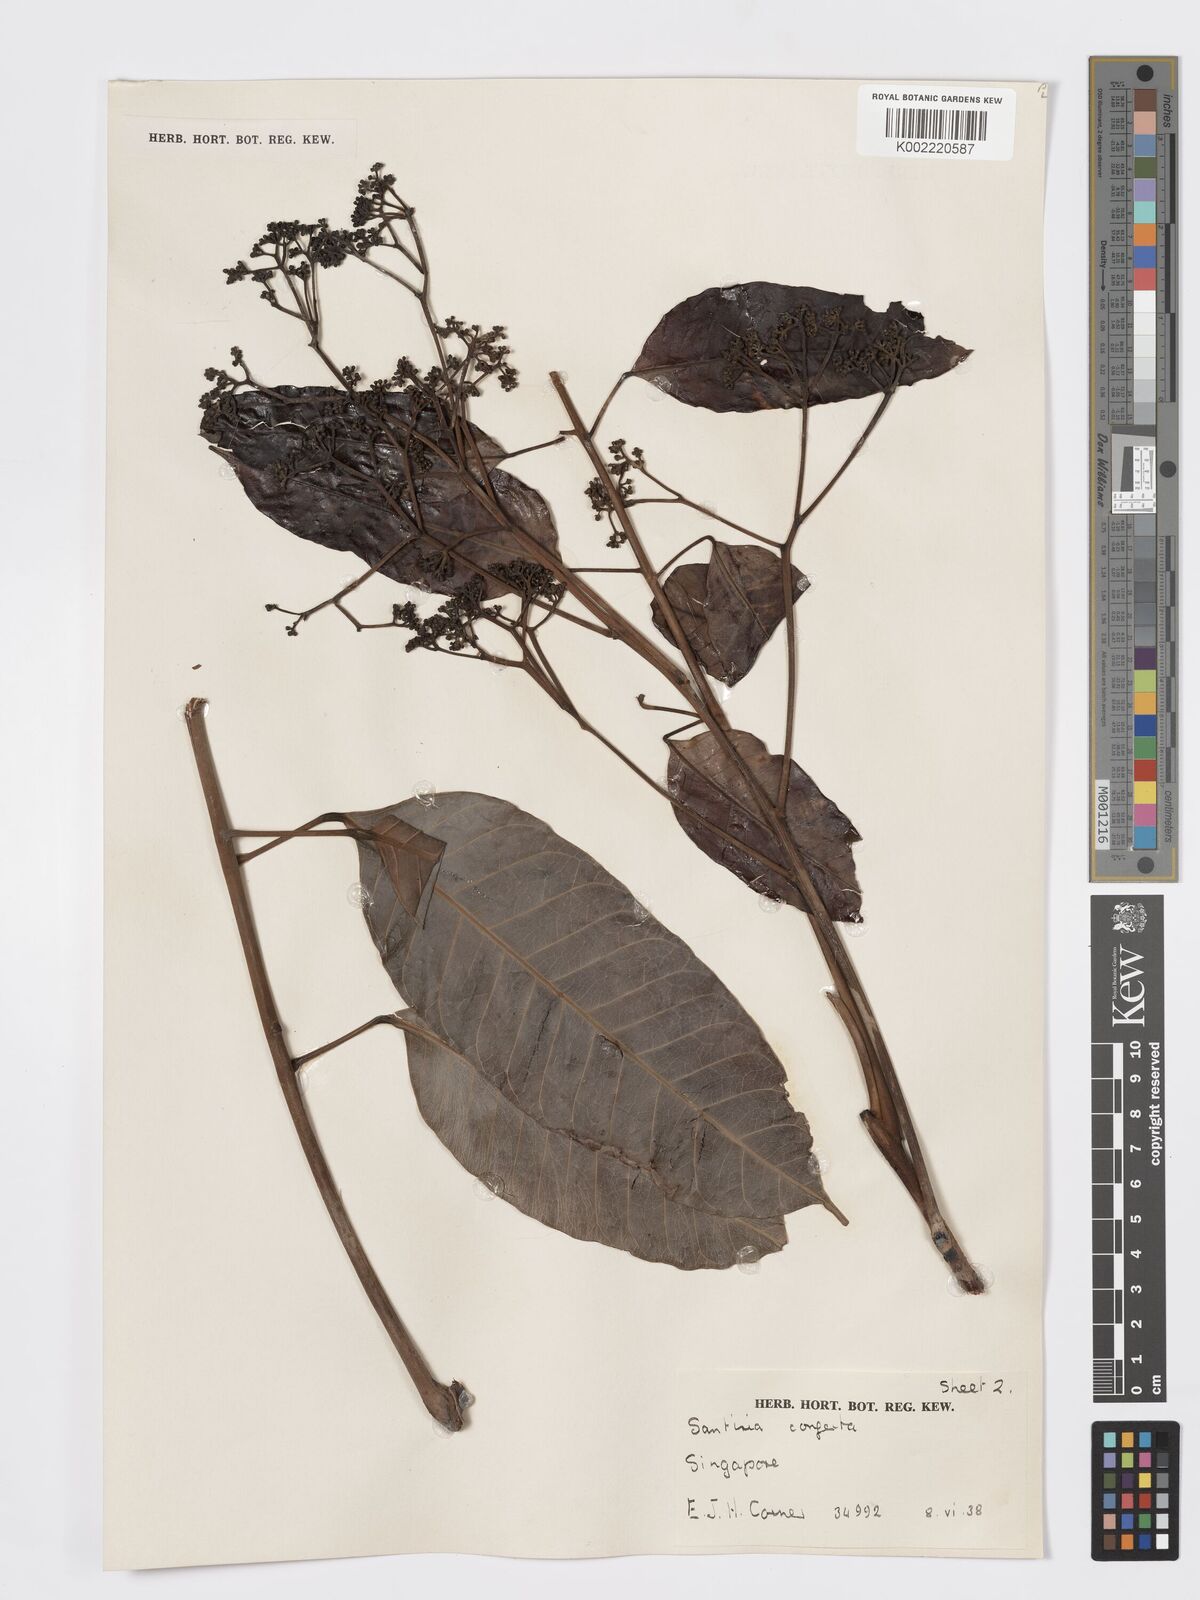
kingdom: Plantae
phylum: Tracheophyta
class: Magnoliopsida
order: Sapindales
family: Burseraceae
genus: Santiria
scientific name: Santiria conferta
